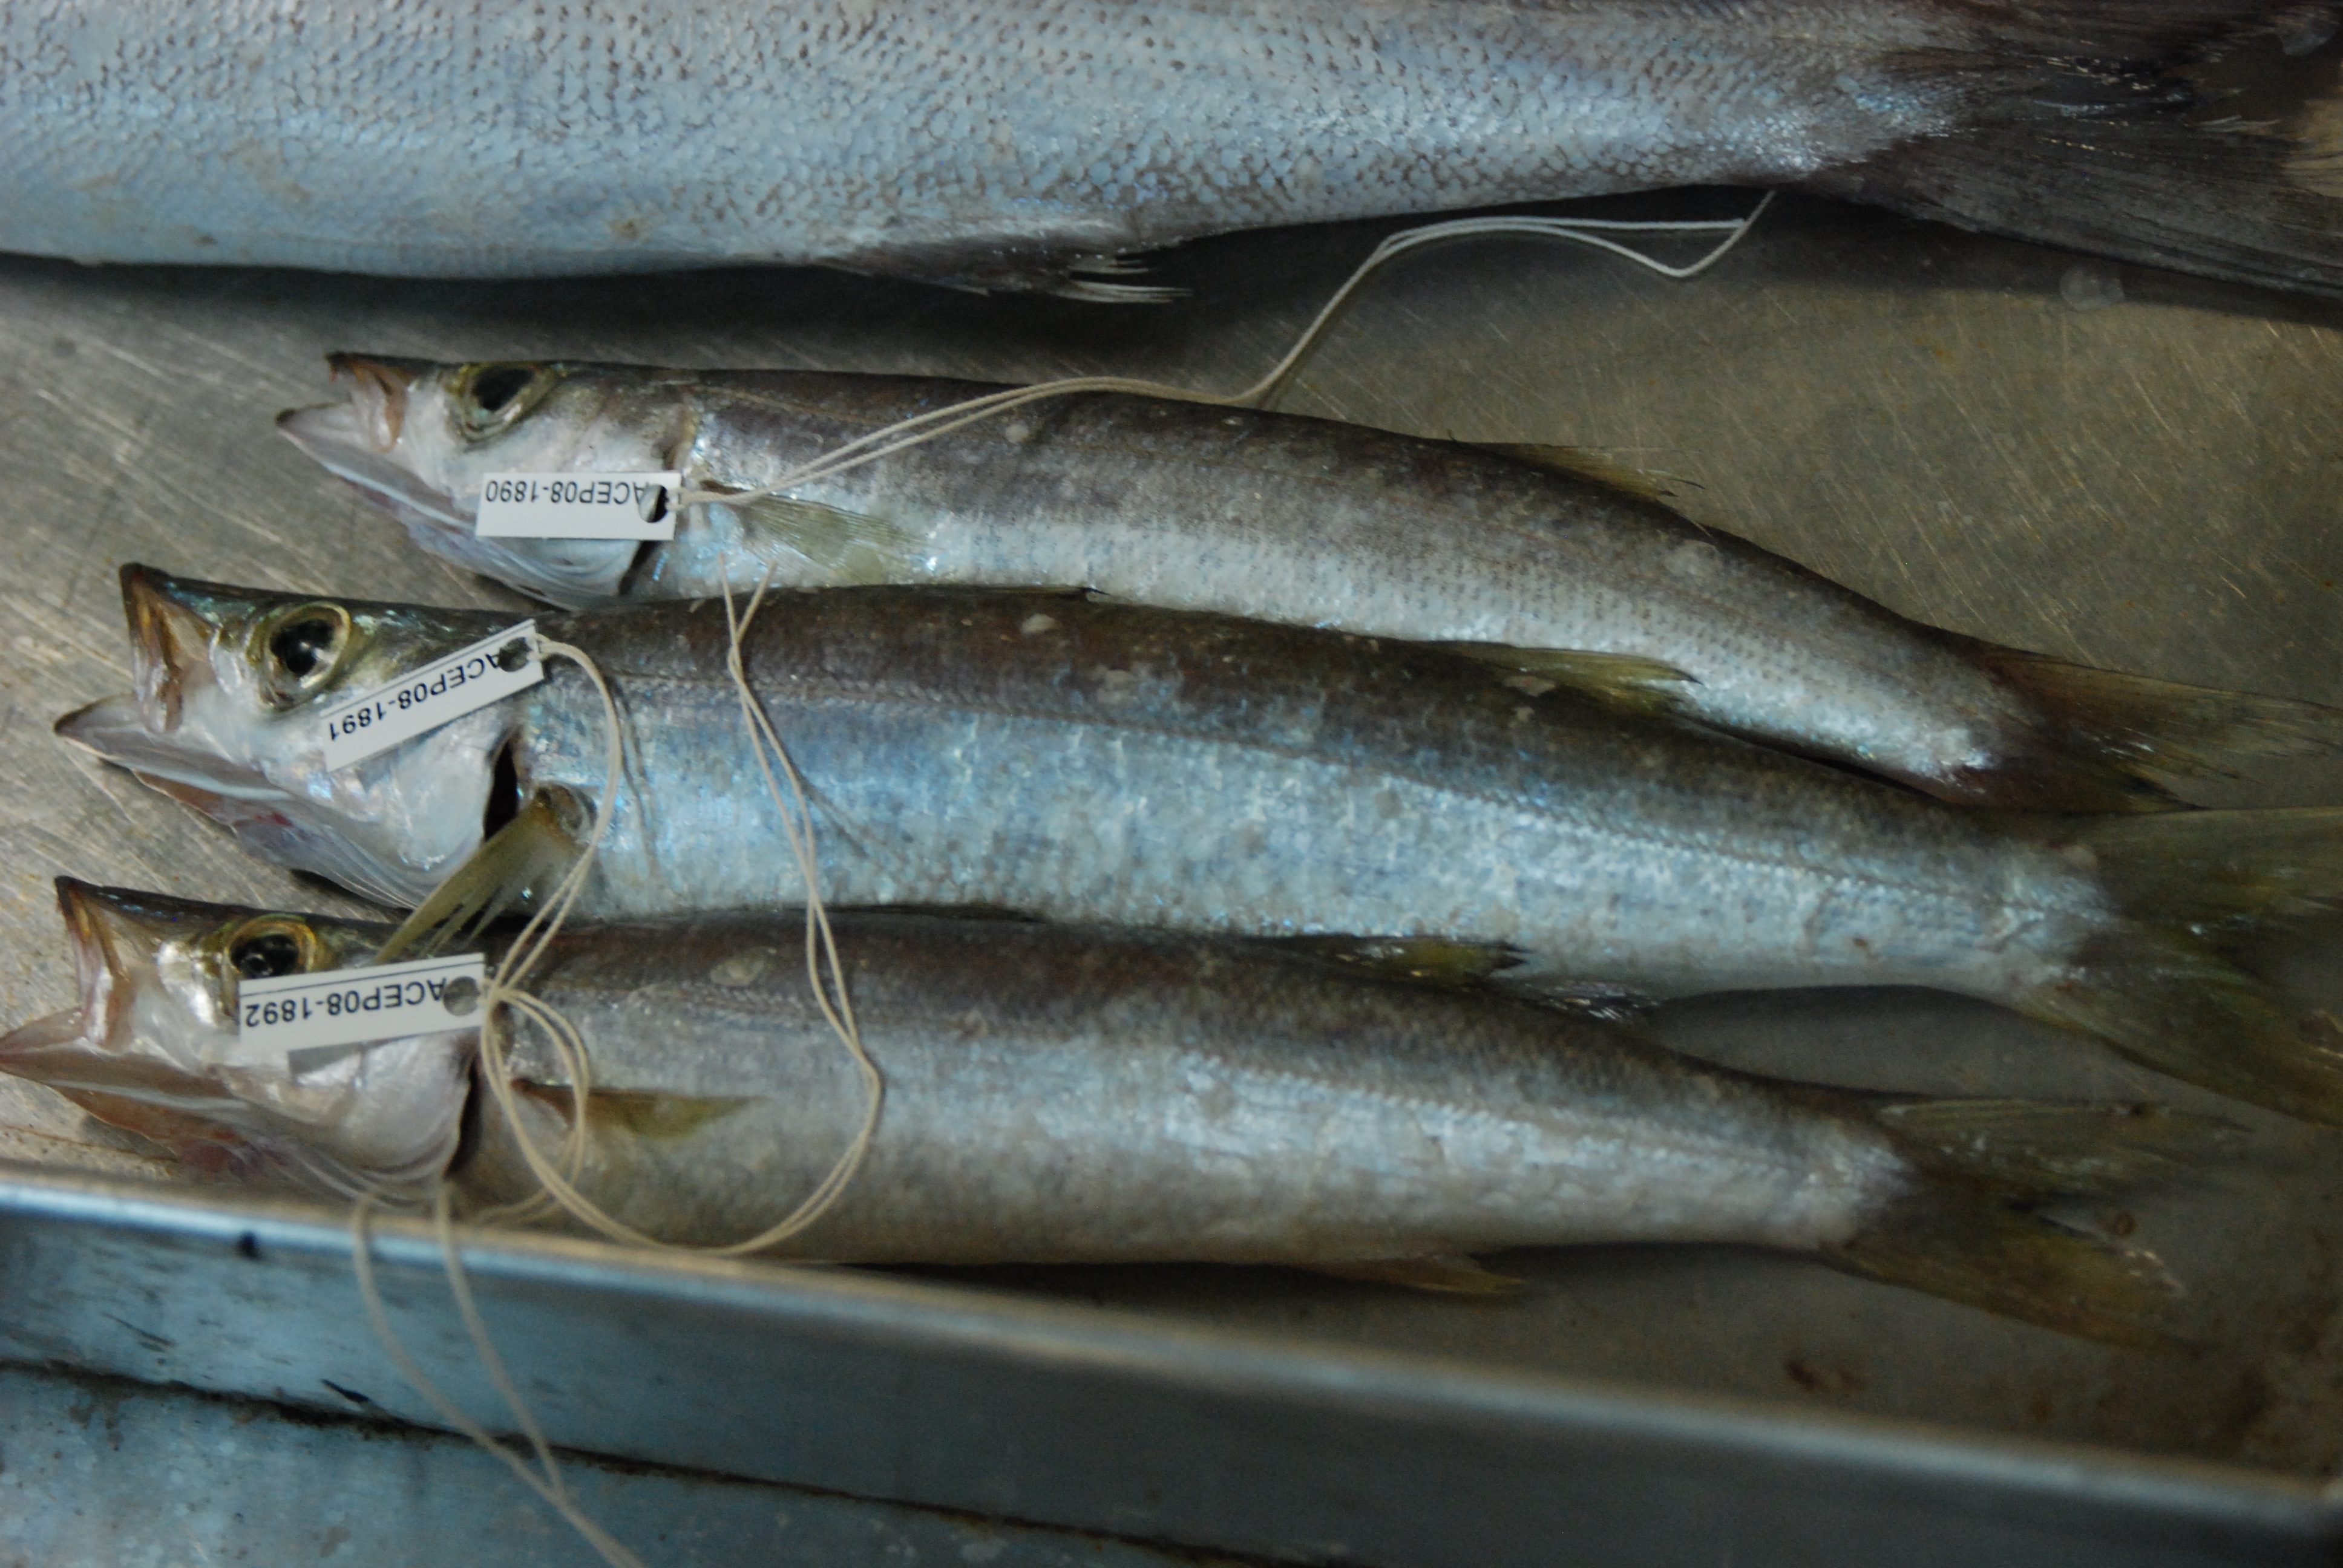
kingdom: Animalia
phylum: Chordata
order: Perciformes
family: Sphyraenidae
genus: Sphyraena
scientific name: Sphyraena flavicauda
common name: Yellowtail barracuda
